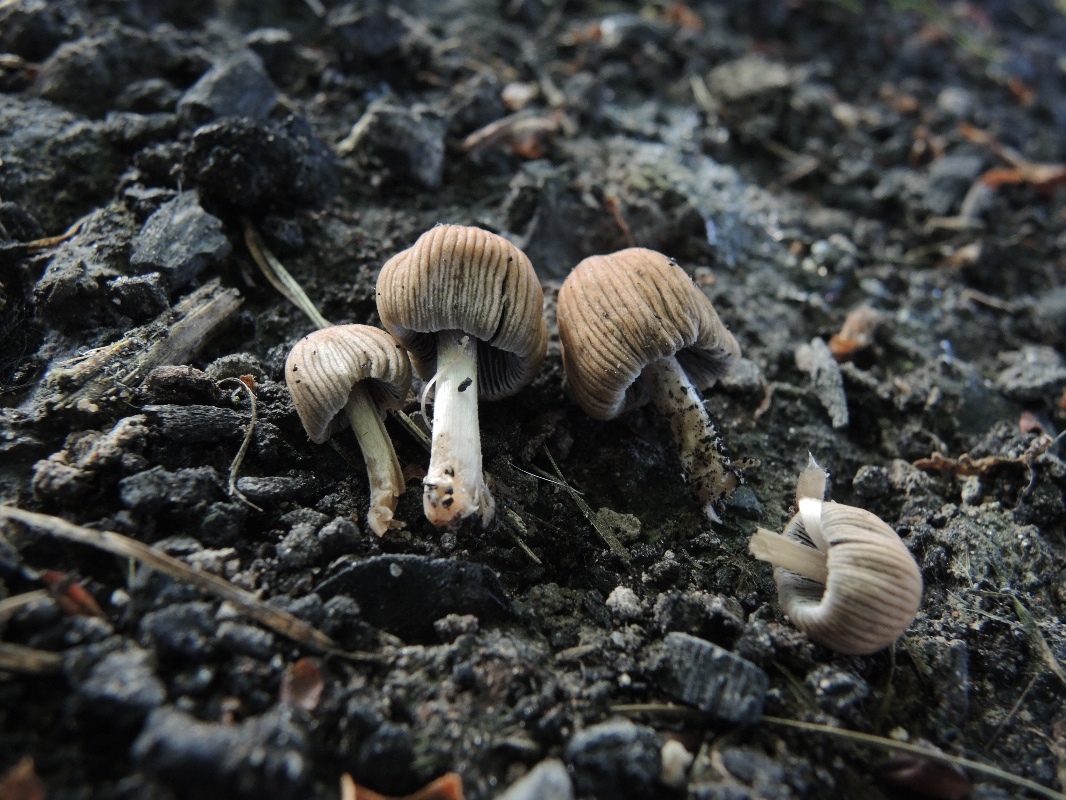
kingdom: Fungi
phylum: Basidiomycota
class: Agaricomycetes
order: Agaricales
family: Psathyrellaceae
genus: Tulosesus
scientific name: Tulosesus angulatus
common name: kul-blækhat
